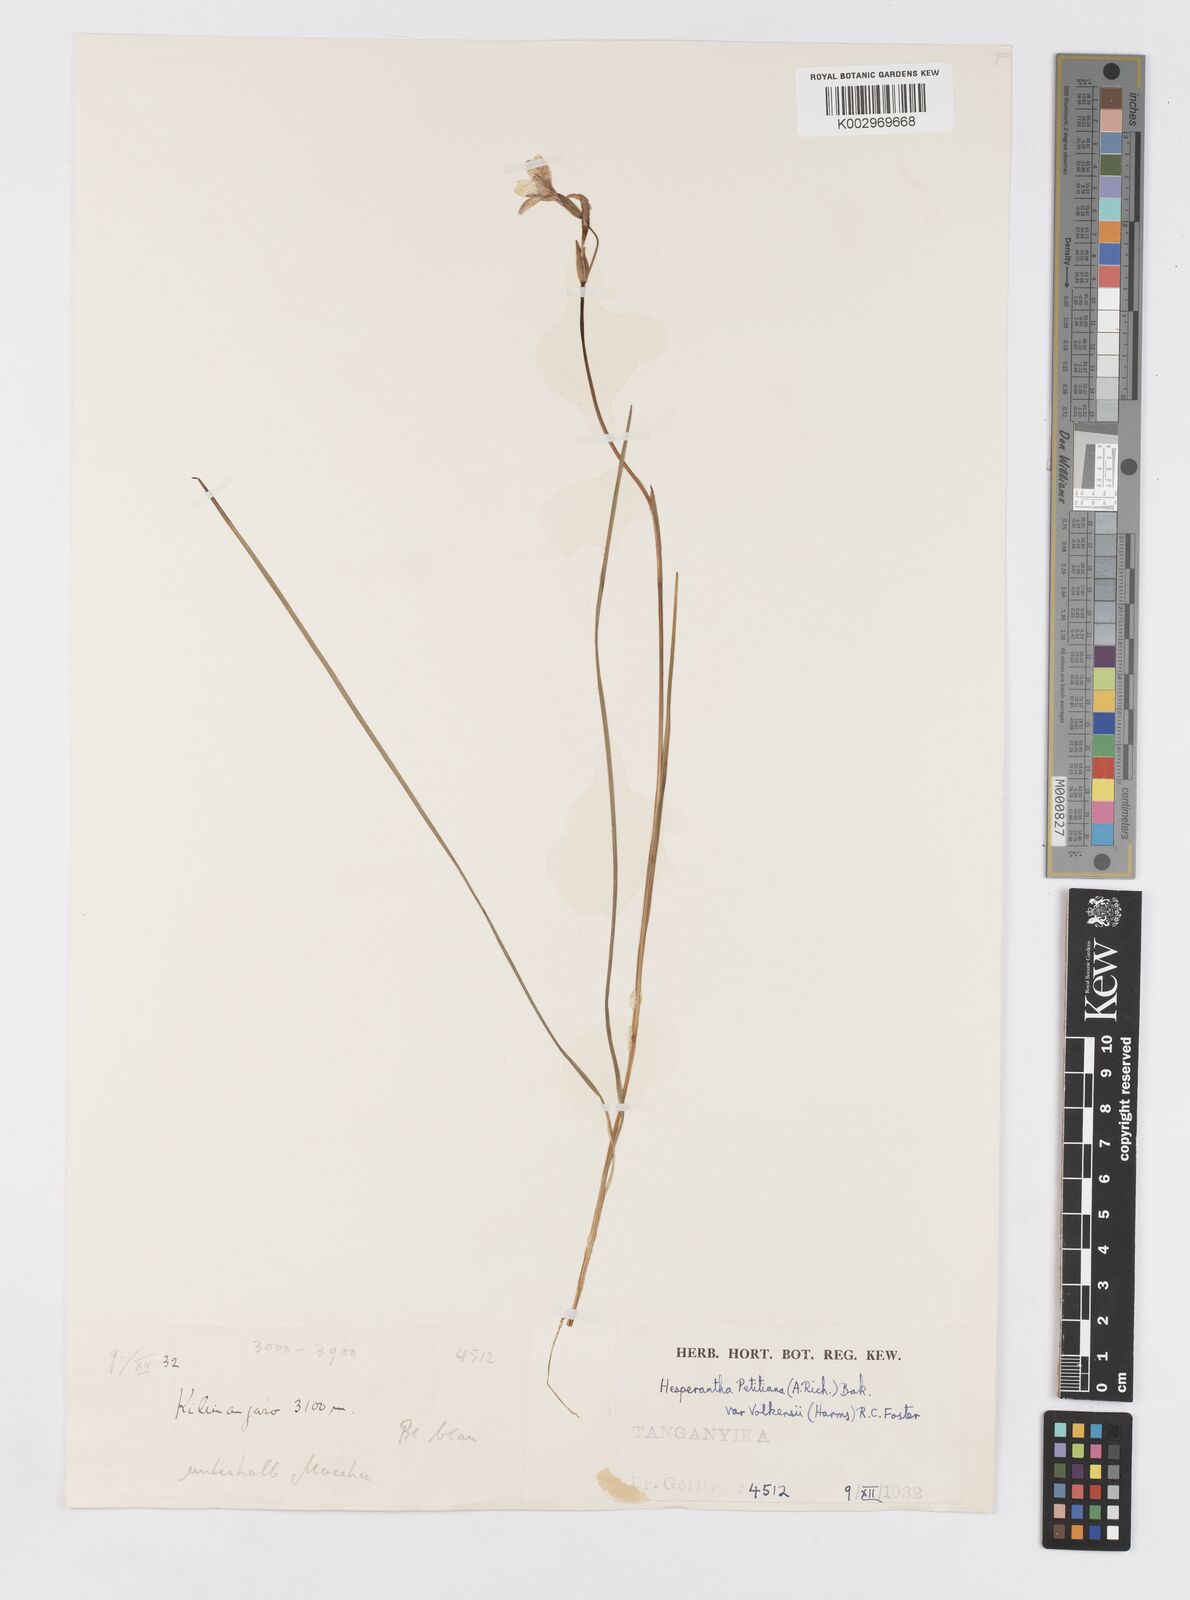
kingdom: Plantae
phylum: Tracheophyta
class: Liliopsida
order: Asparagales
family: Iridaceae
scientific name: Iridaceae
